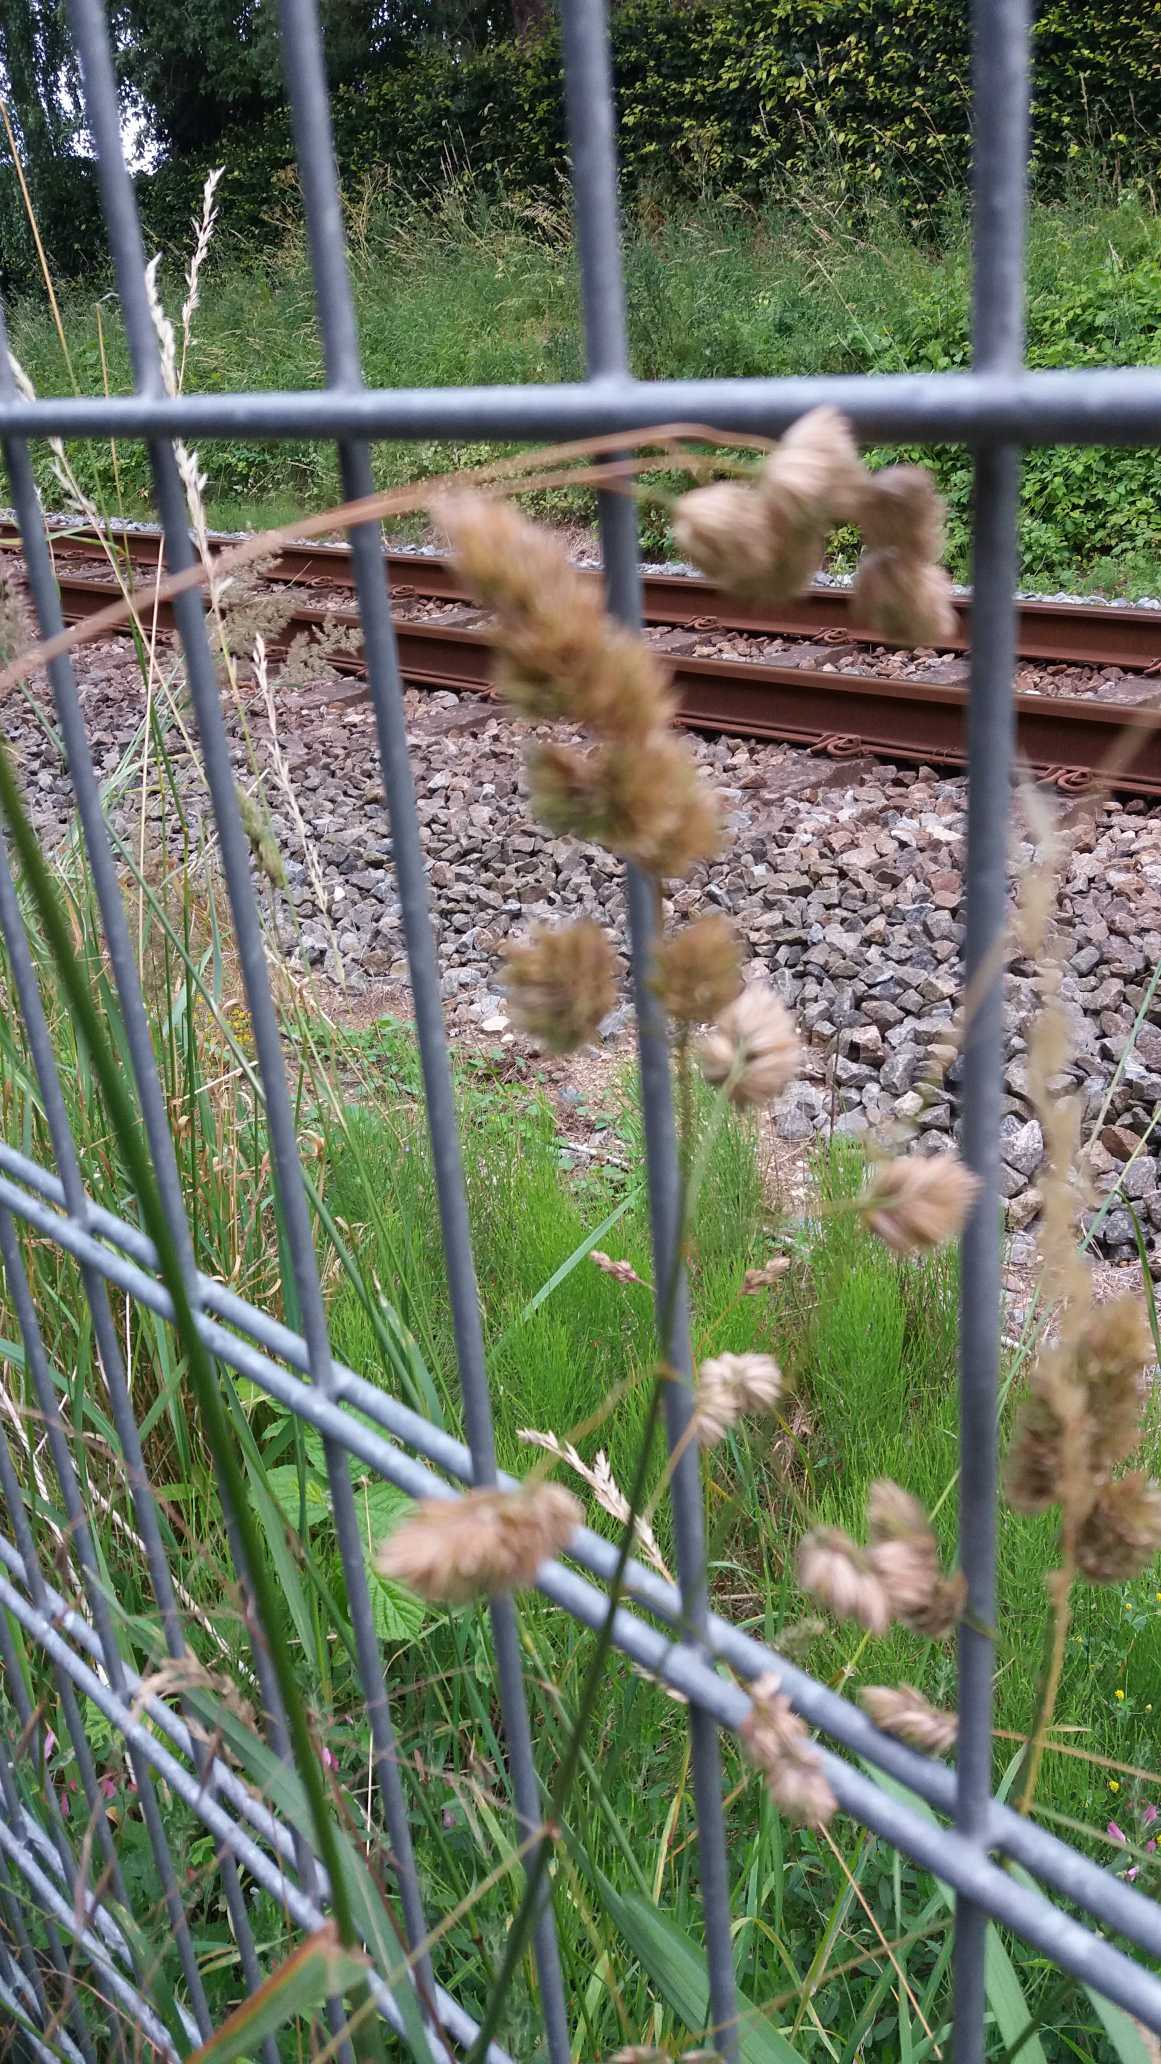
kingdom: Plantae
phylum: Tracheophyta
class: Liliopsida
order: Poales
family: Poaceae
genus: Dactylis
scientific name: Dactylis glomerata
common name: Almindelig hundegræs
